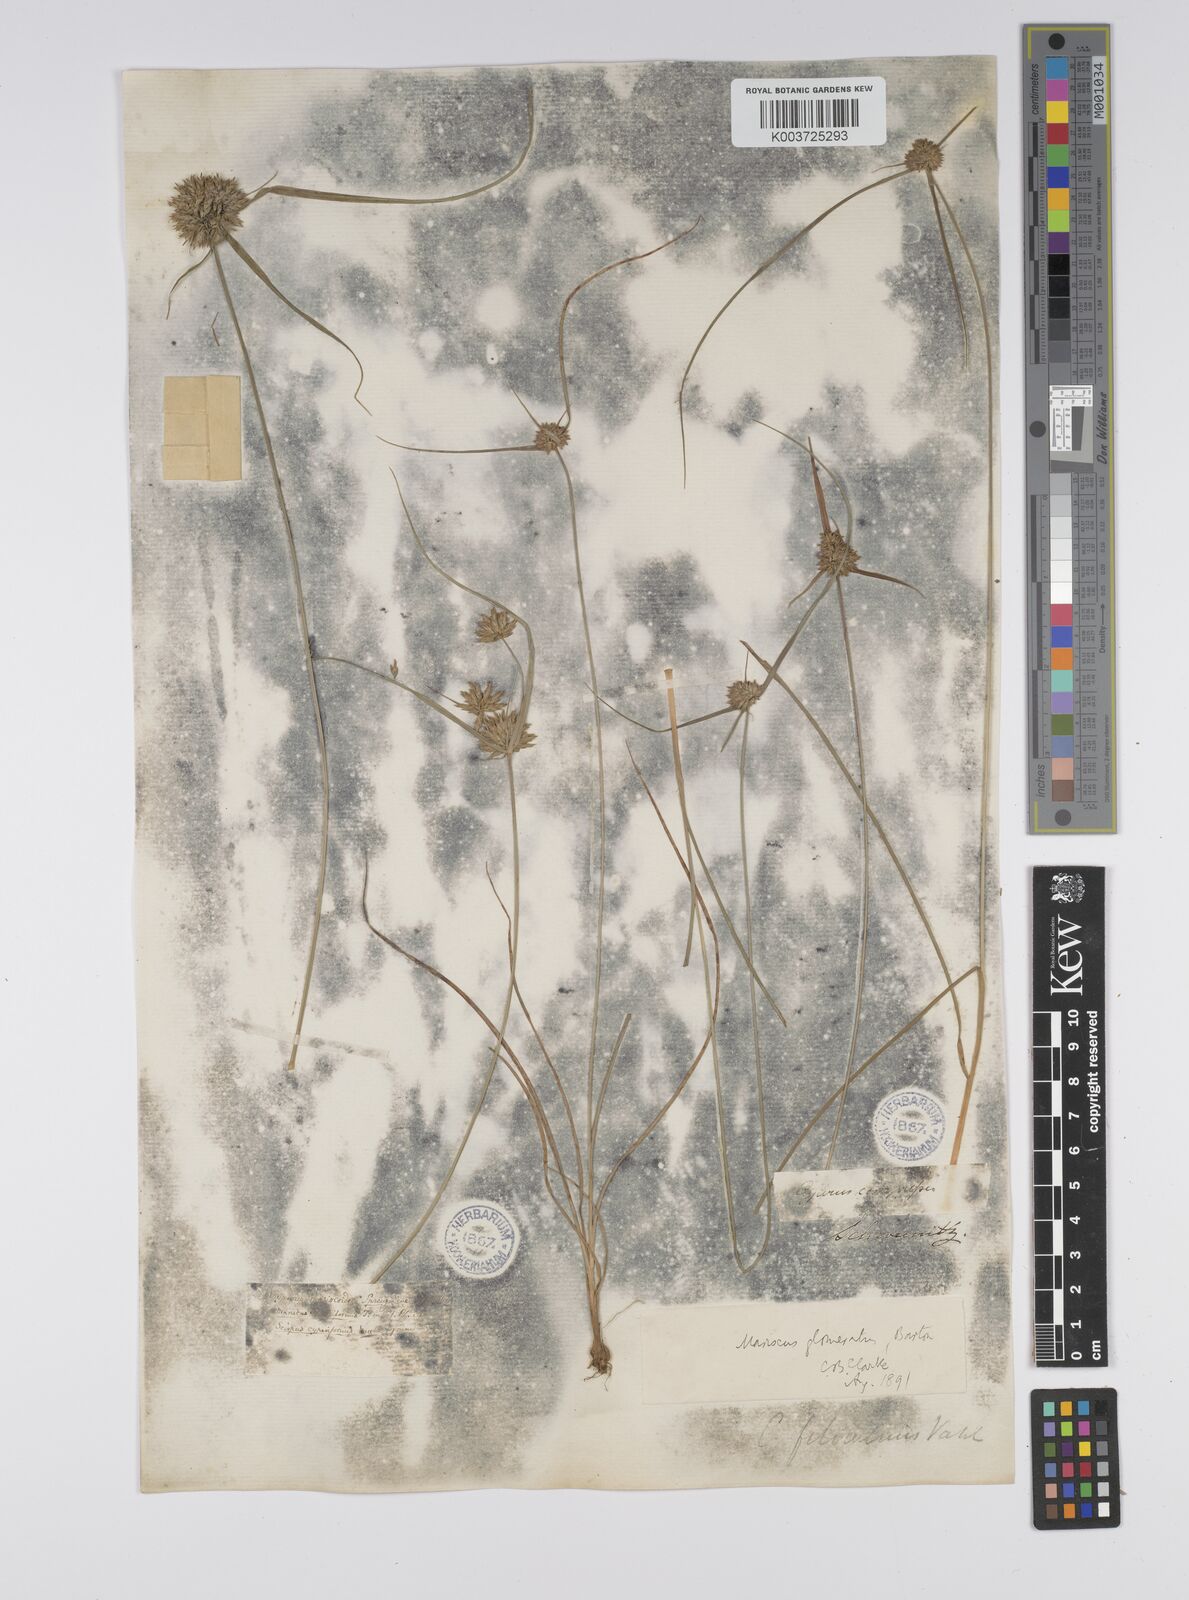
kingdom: Plantae
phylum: Tracheophyta
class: Liliopsida
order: Poales
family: Cyperaceae
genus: Cyperus
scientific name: Cyperus lupulinus
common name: Great plains flatsedge
